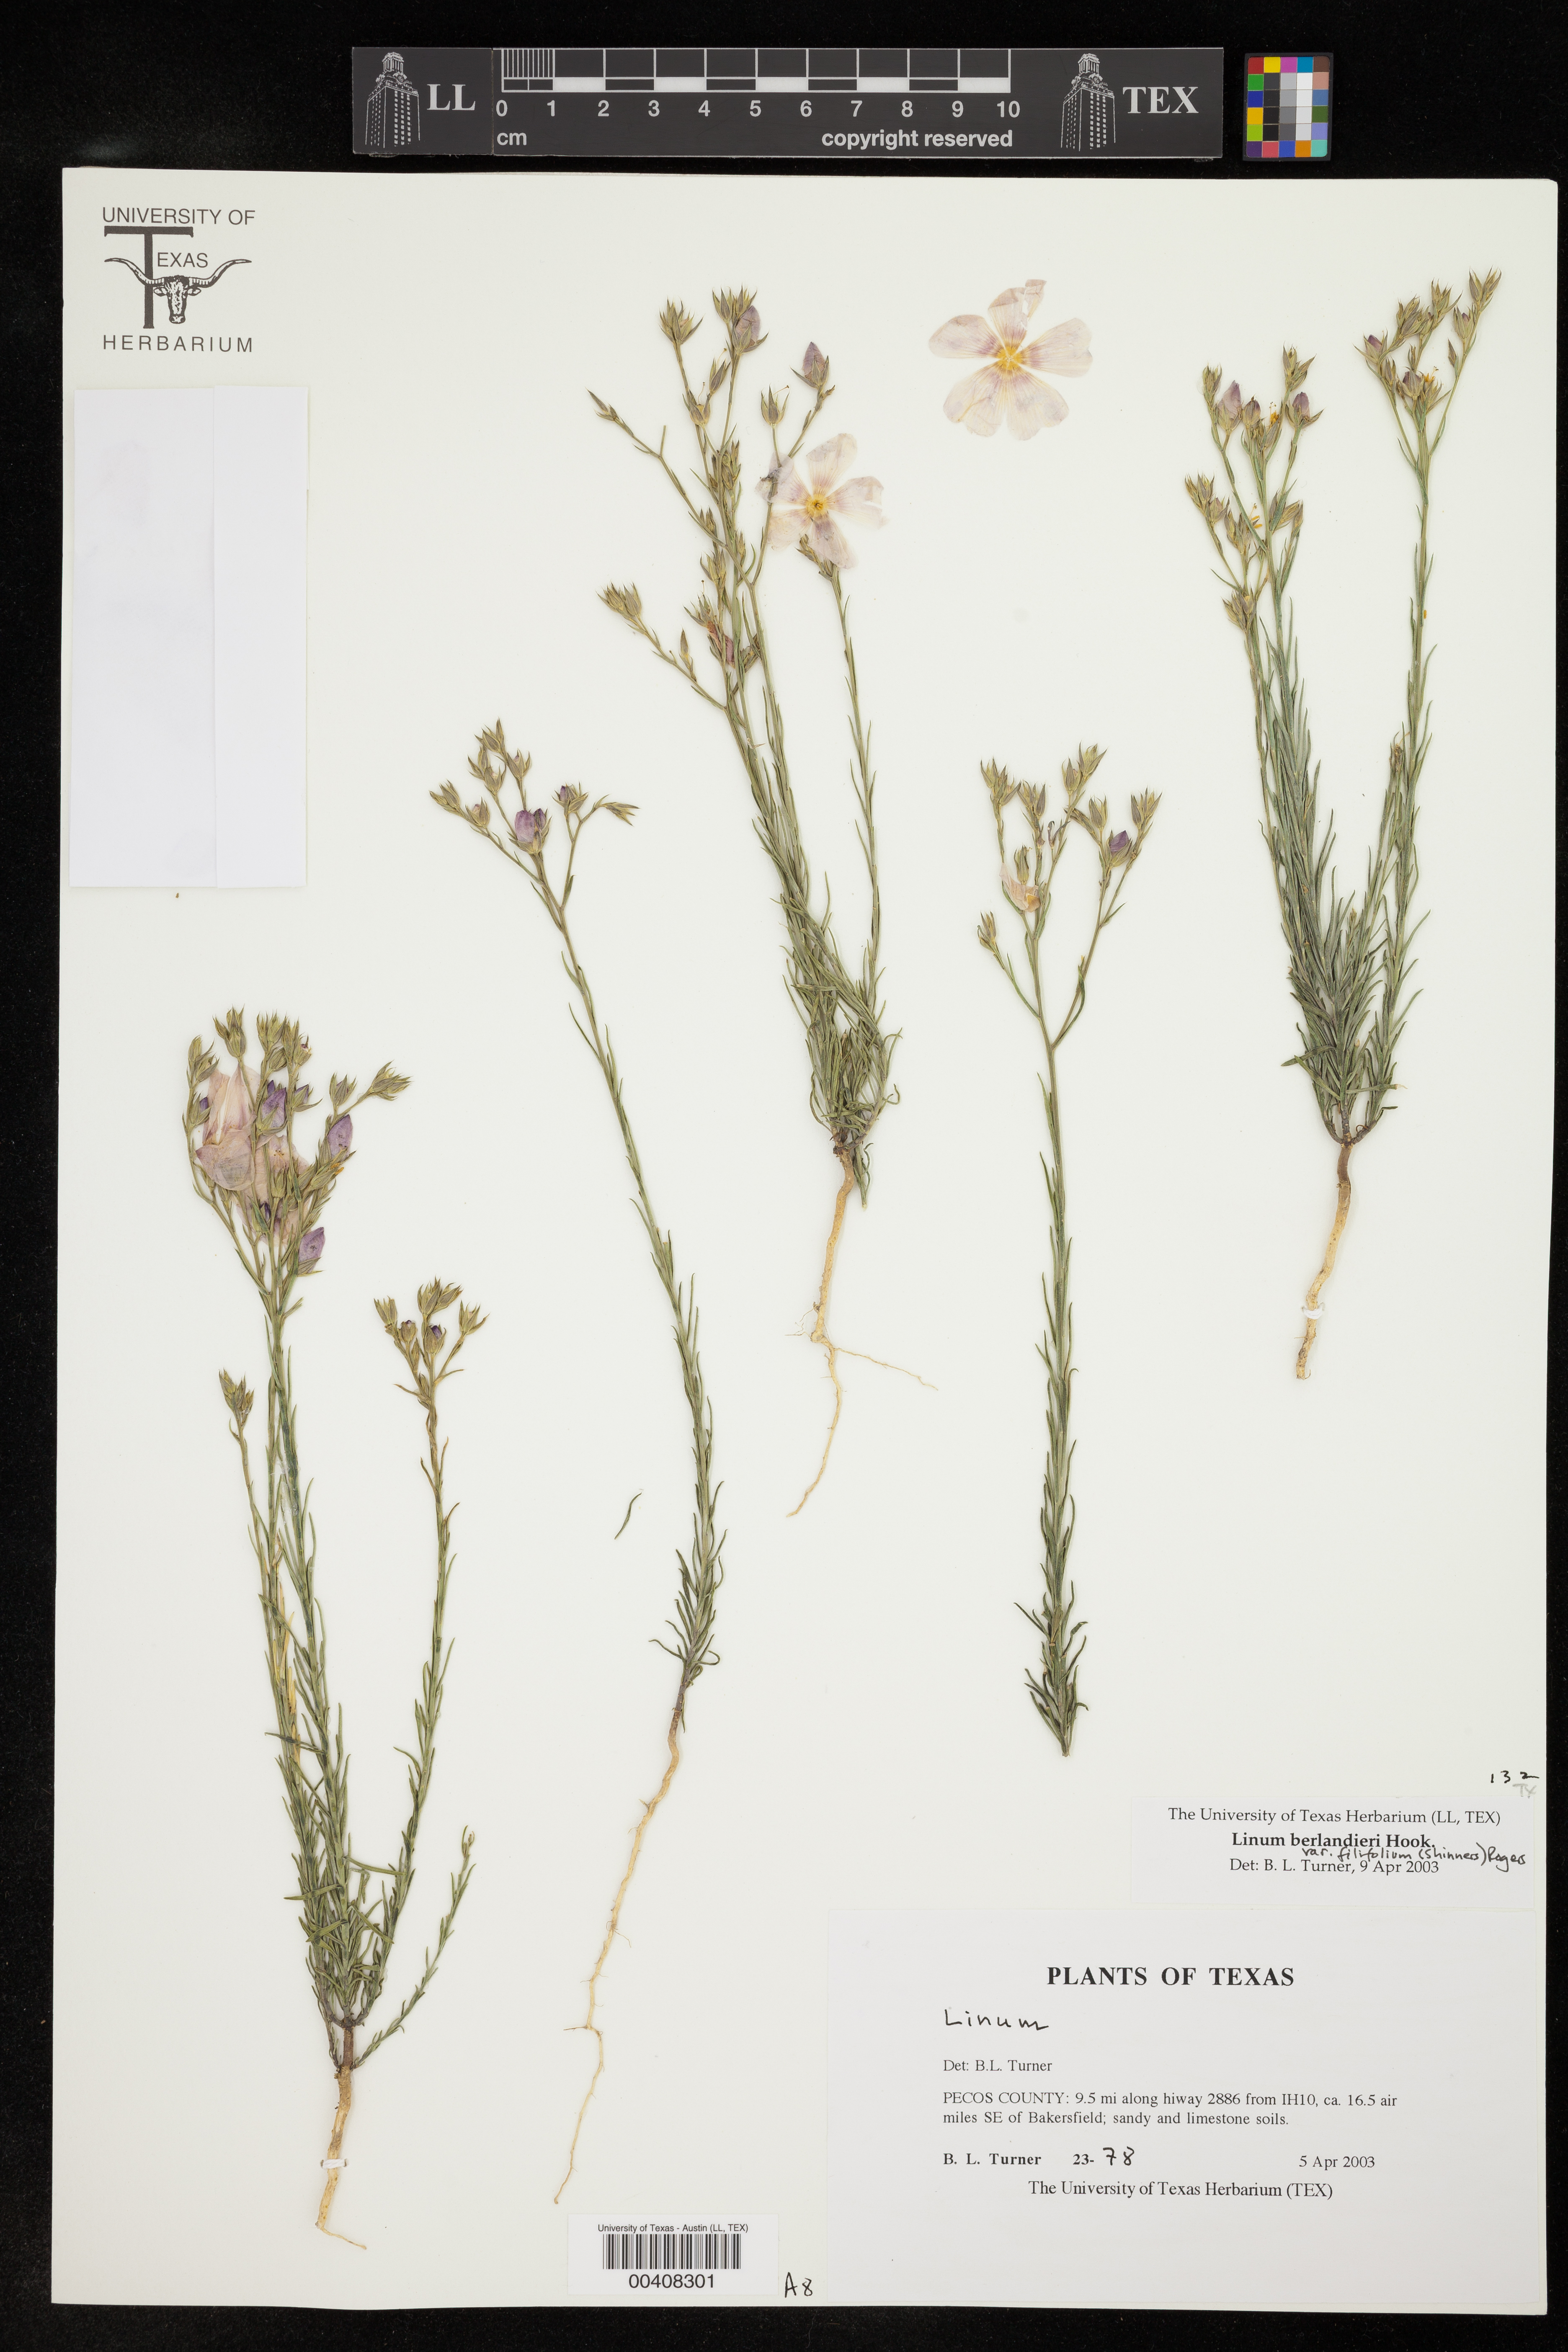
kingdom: Plantae
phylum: Tracheophyta
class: Magnoliopsida
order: Malpighiales
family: Linaceae
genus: Linum
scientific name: Linum berlandieri
